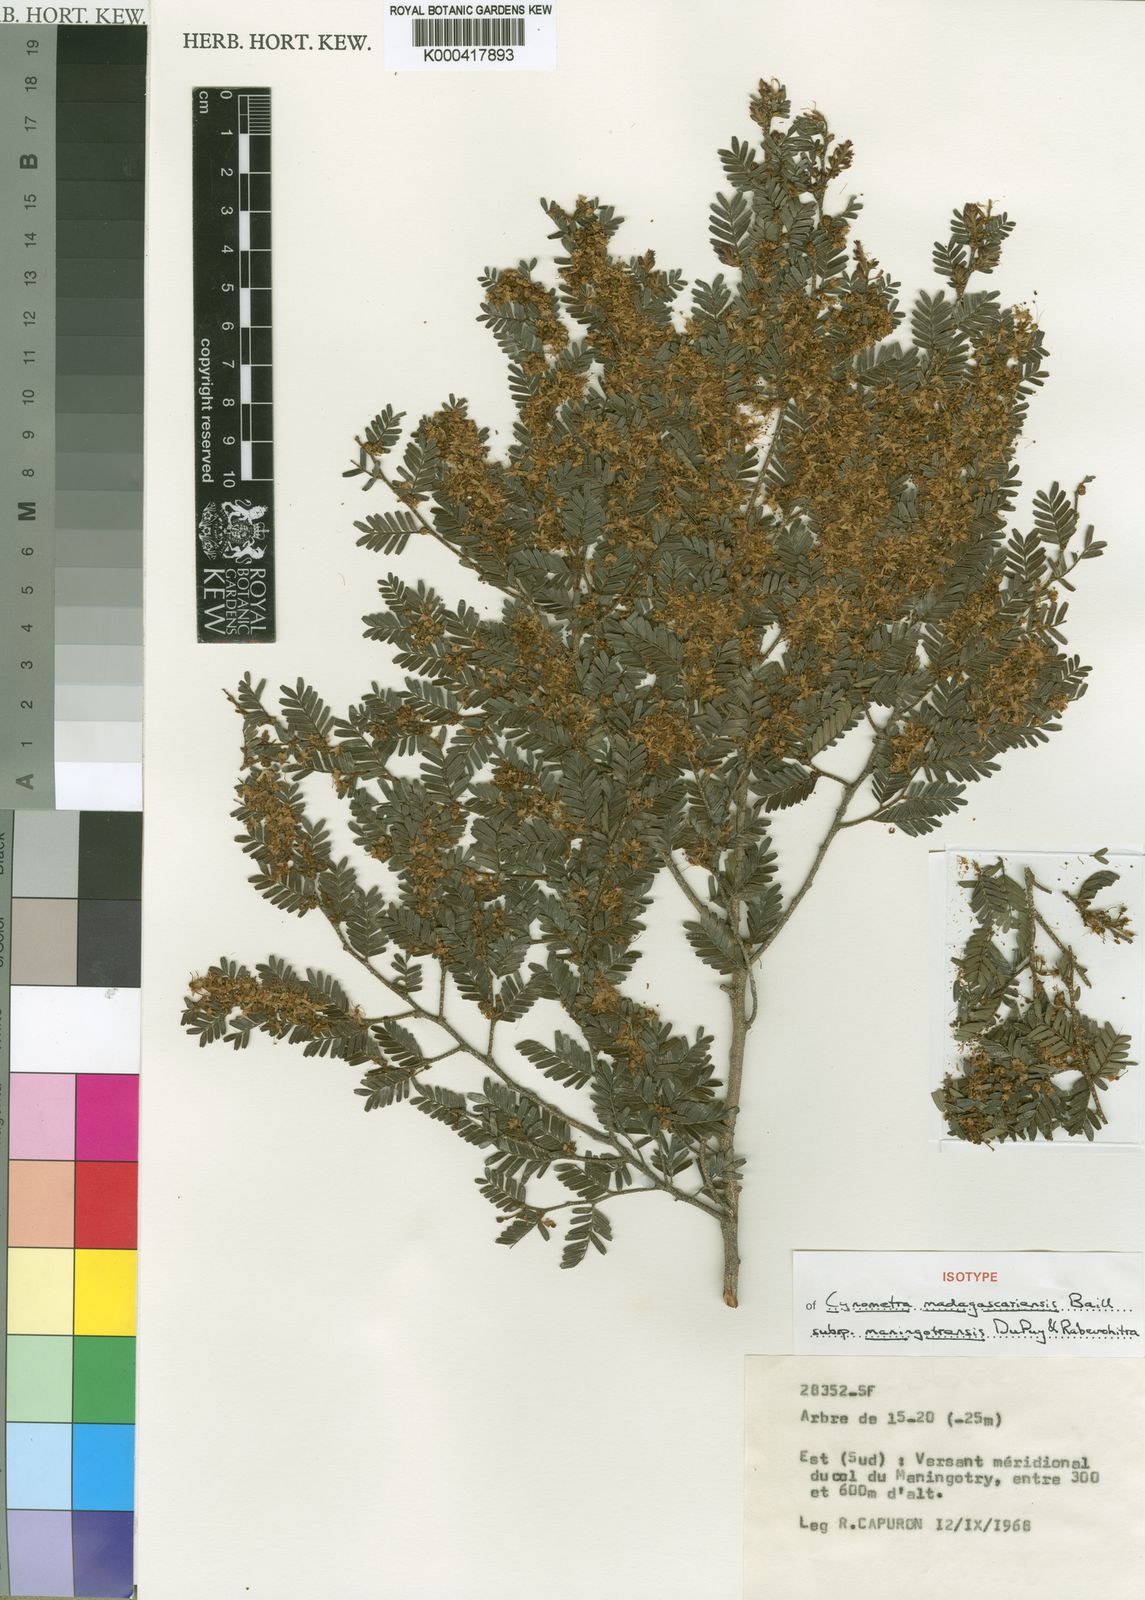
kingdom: Plantae
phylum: Tracheophyta
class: Magnoliopsida
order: Fabales
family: Fabaceae
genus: Cynometra
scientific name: Cynometra madagascariensis
